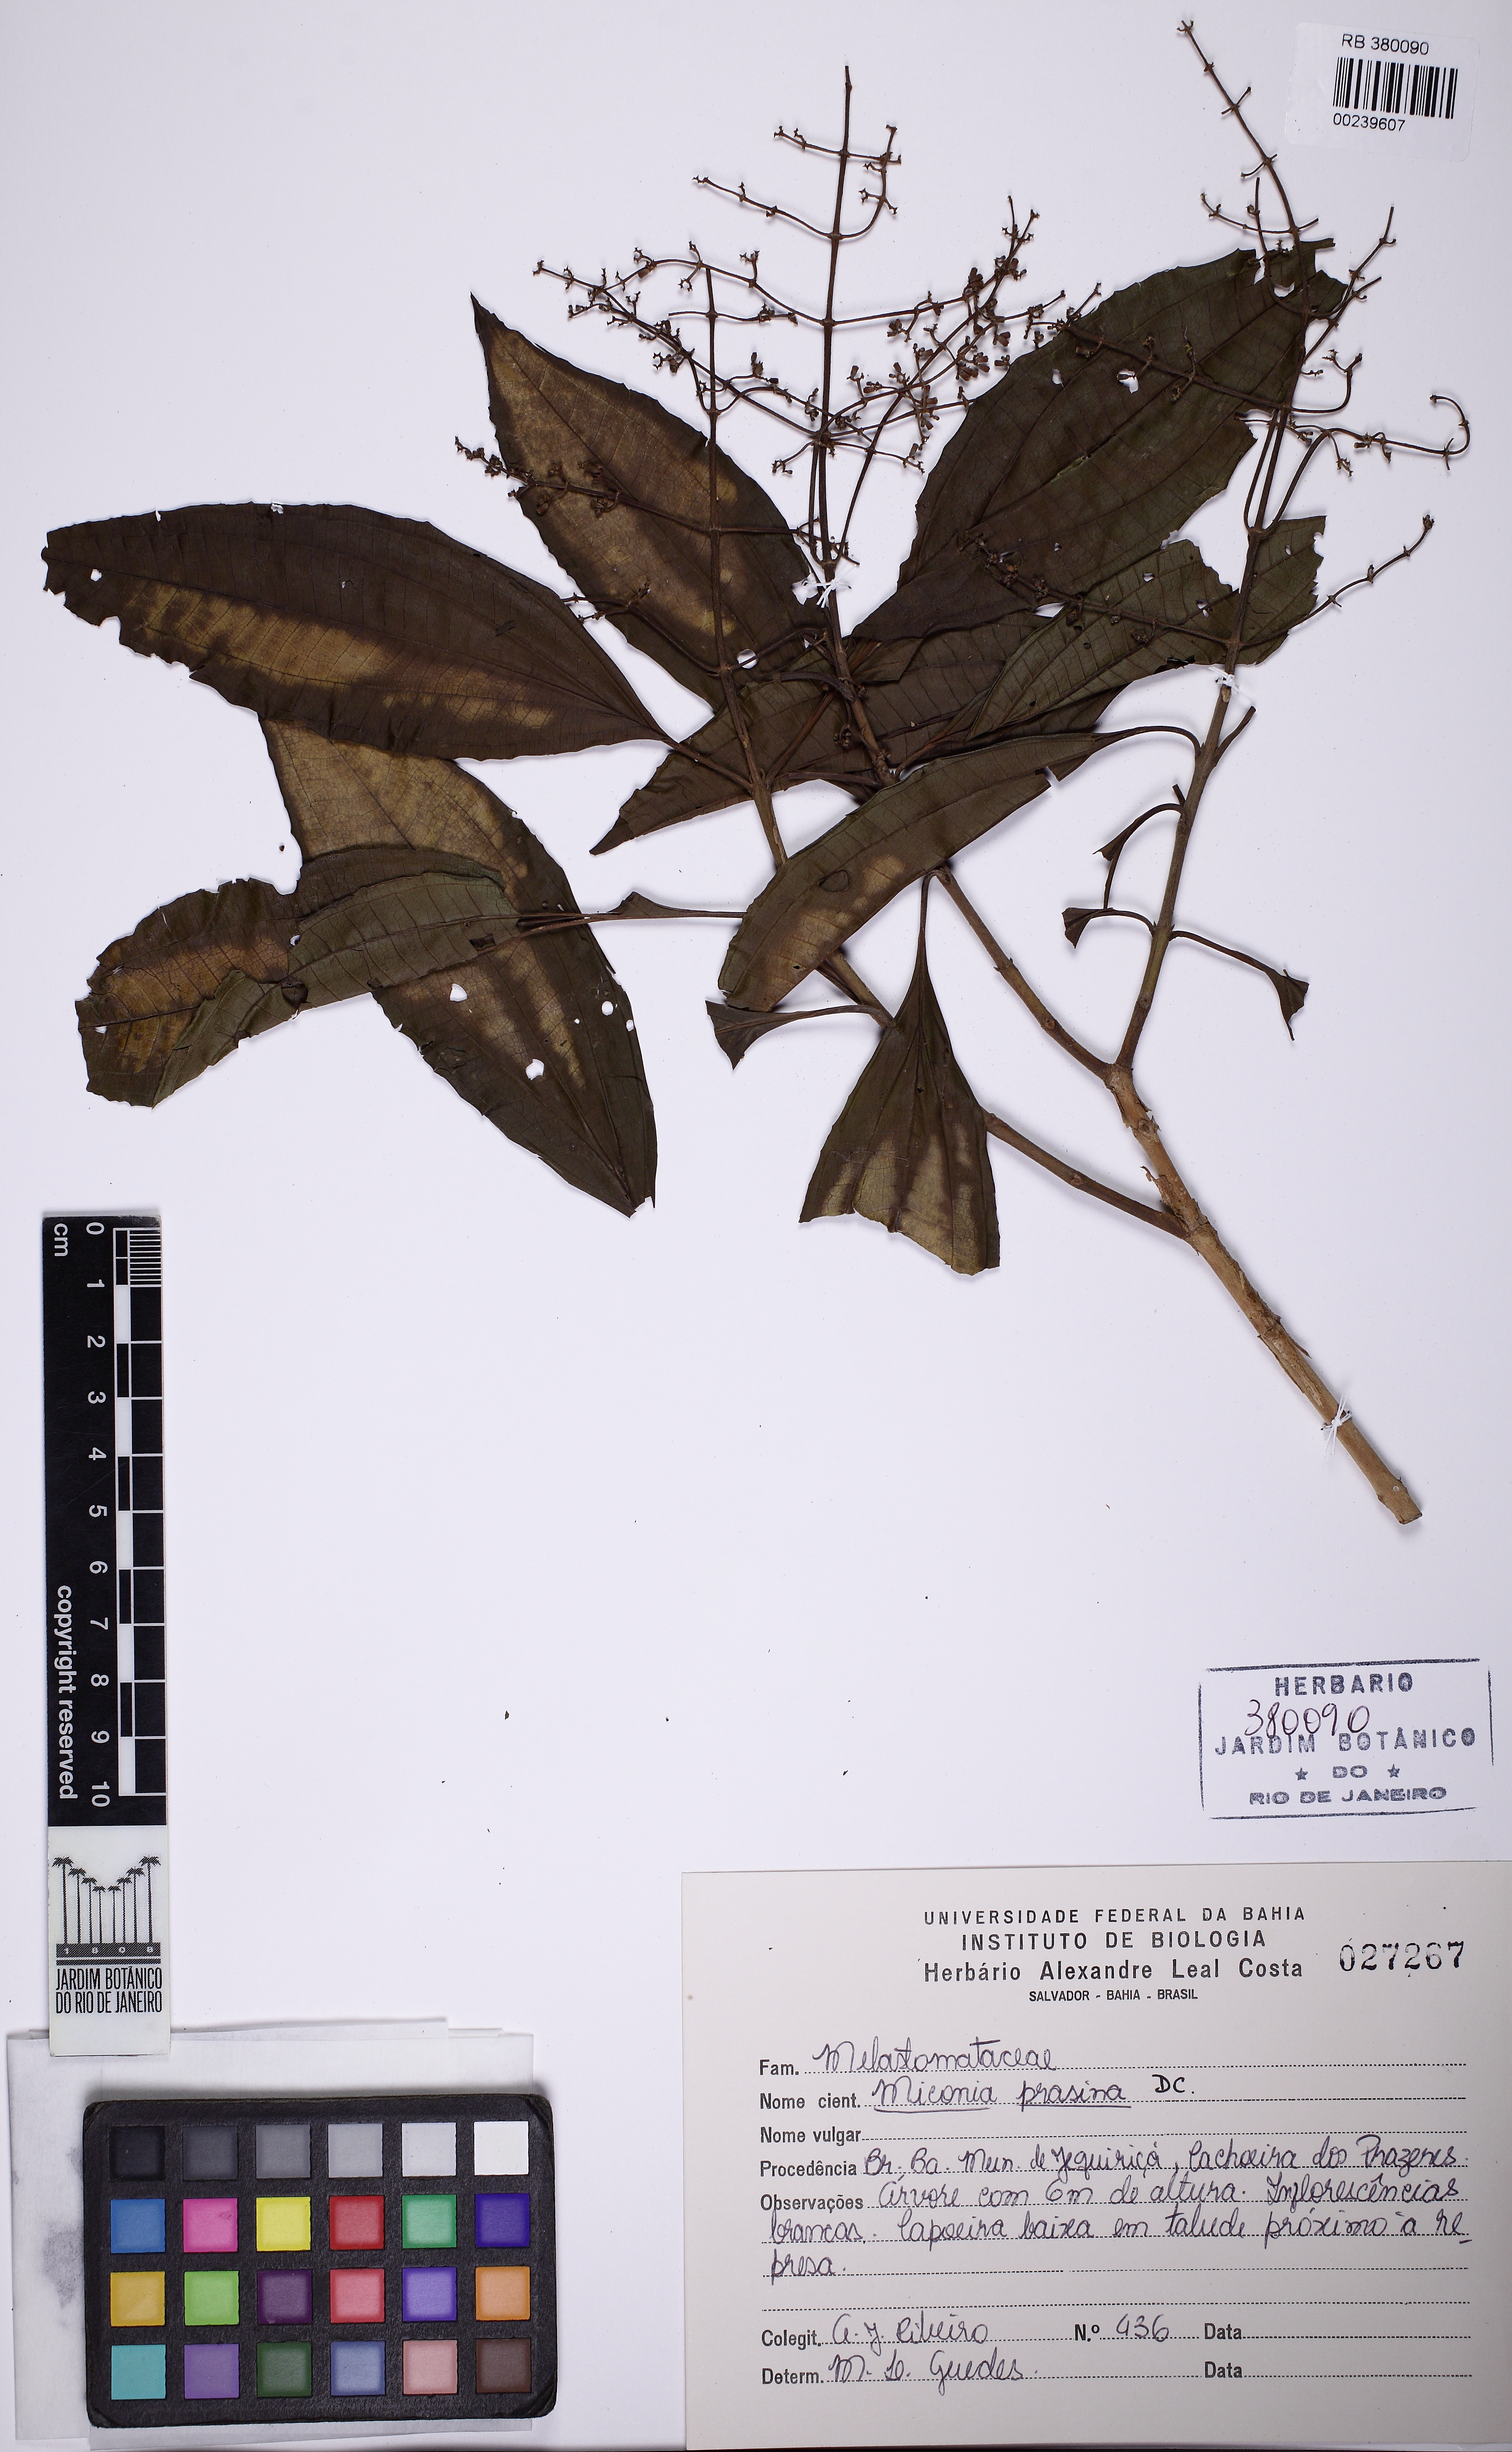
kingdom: Plantae
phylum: Tracheophyta
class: Magnoliopsida
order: Myrtales
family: Melastomataceae
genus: Miconia
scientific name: Miconia prasina
